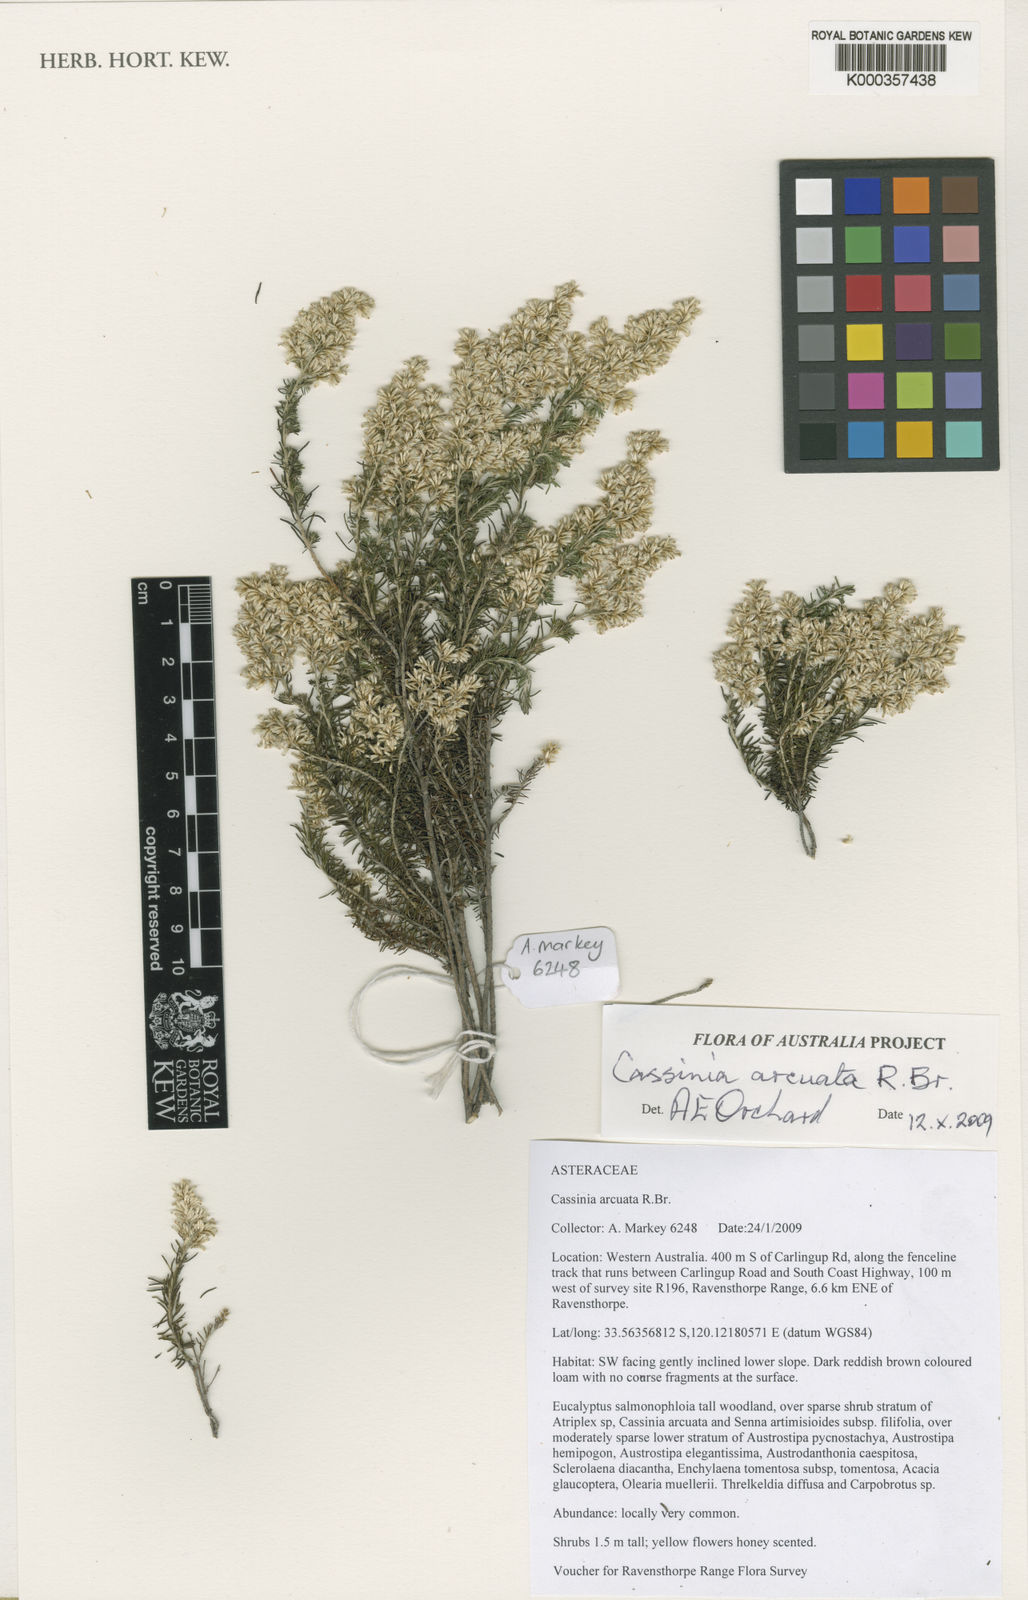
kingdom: Plantae
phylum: Tracheophyta
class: Magnoliopsida
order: Asterales
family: Asteraceae
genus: Cassinia
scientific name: Cassinia arcuata
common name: Chineseshrub
